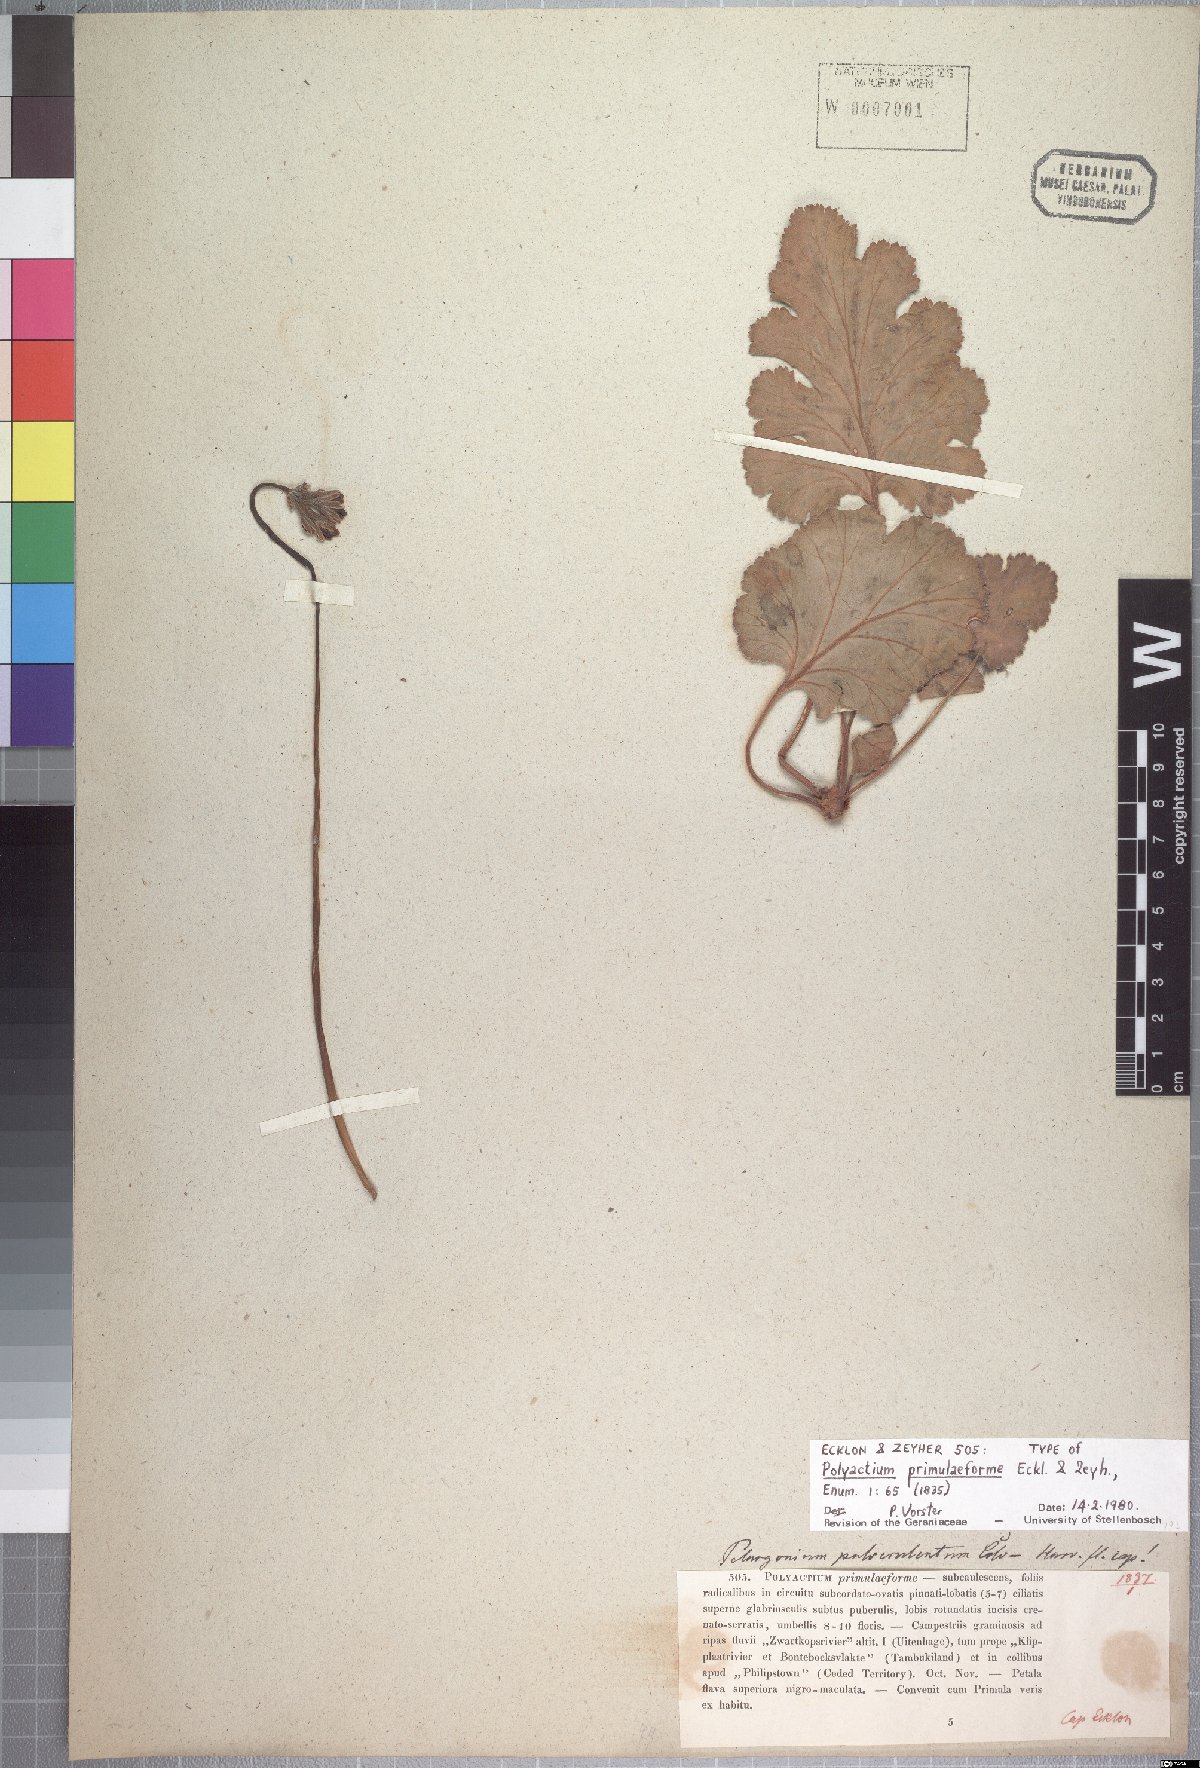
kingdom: Plantae
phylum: Tracheophyta
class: Magnoliopsida
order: Geraniales
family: Geraniaceae
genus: Pelargonium
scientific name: Pelargonium pulverulentum
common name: Powdered-leaf pelargonium
